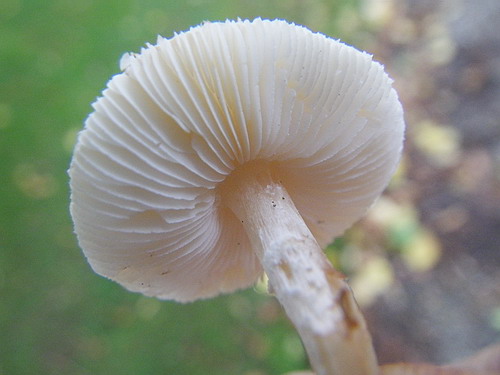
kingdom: Fungi
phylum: Basidiomycota
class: Agaricomycetes
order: Agaricales
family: Agaricaceae
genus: Lepiota
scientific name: Lepiota subincarnata
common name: kødfarvet parasolhat
